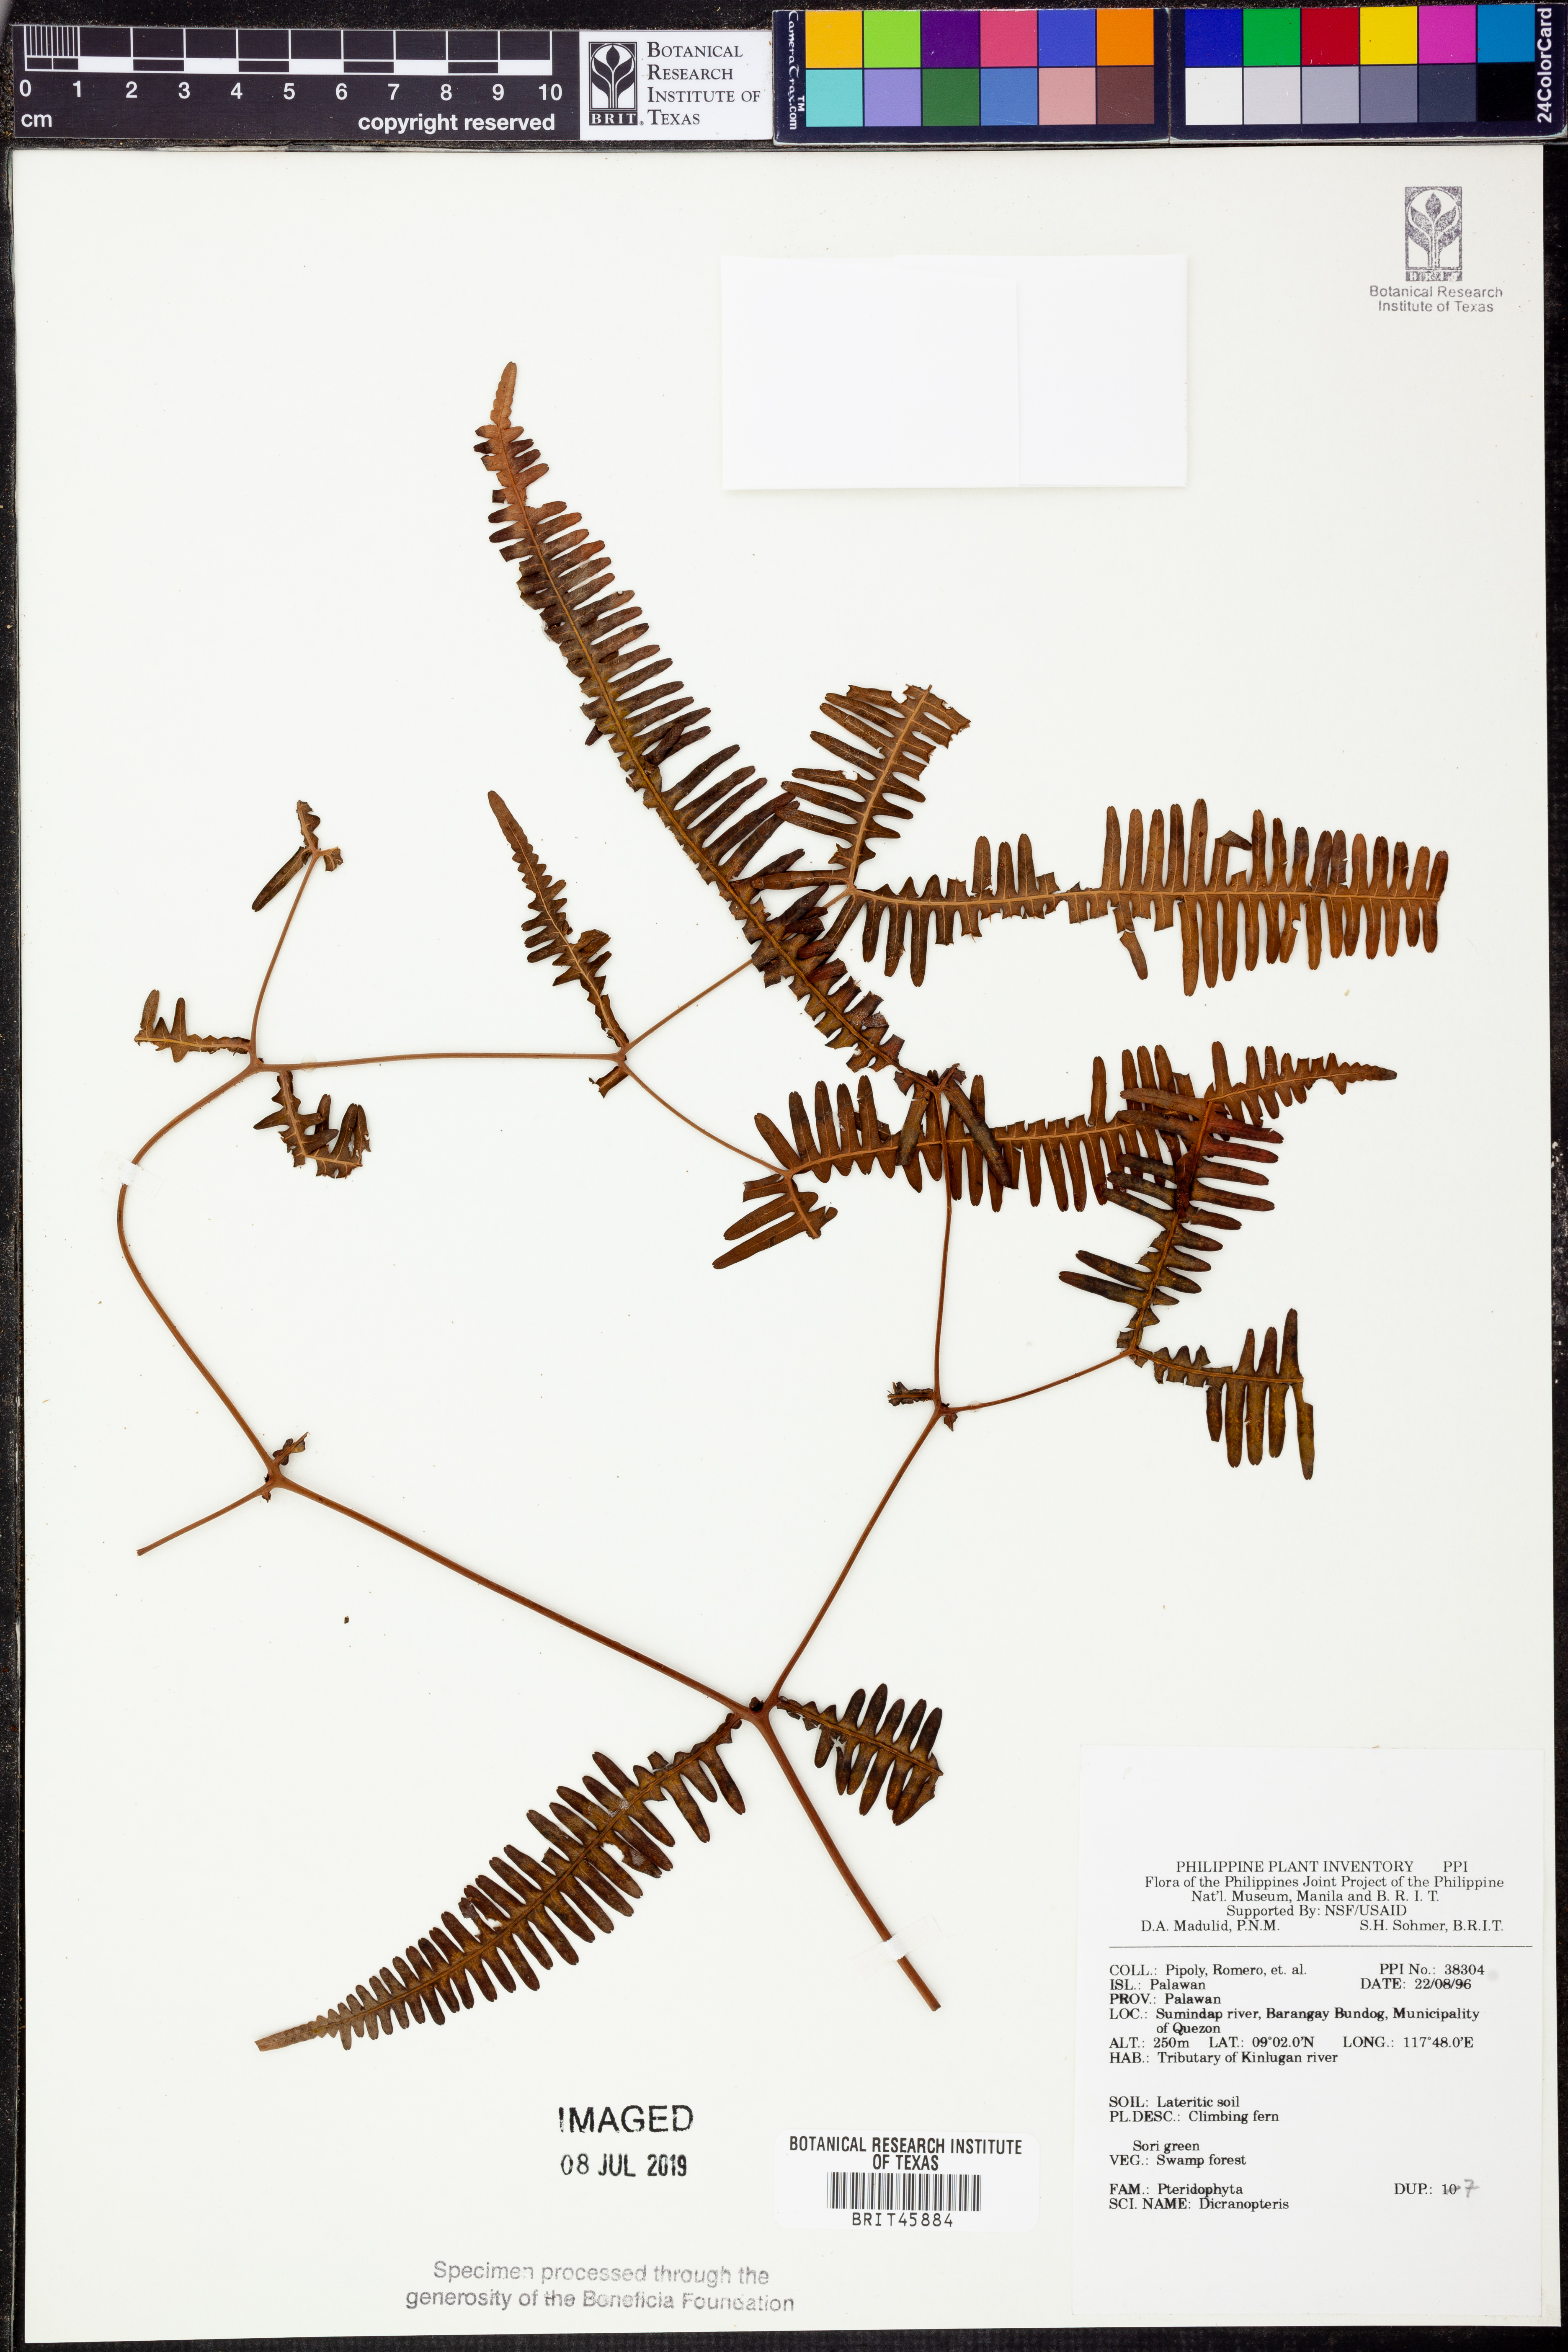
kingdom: Plantae
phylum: Tracheophyta
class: Polypodiopsida
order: Gleicheniales
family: Gleicheniaceae
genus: Dicranopteris
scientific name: Dicranopteris
